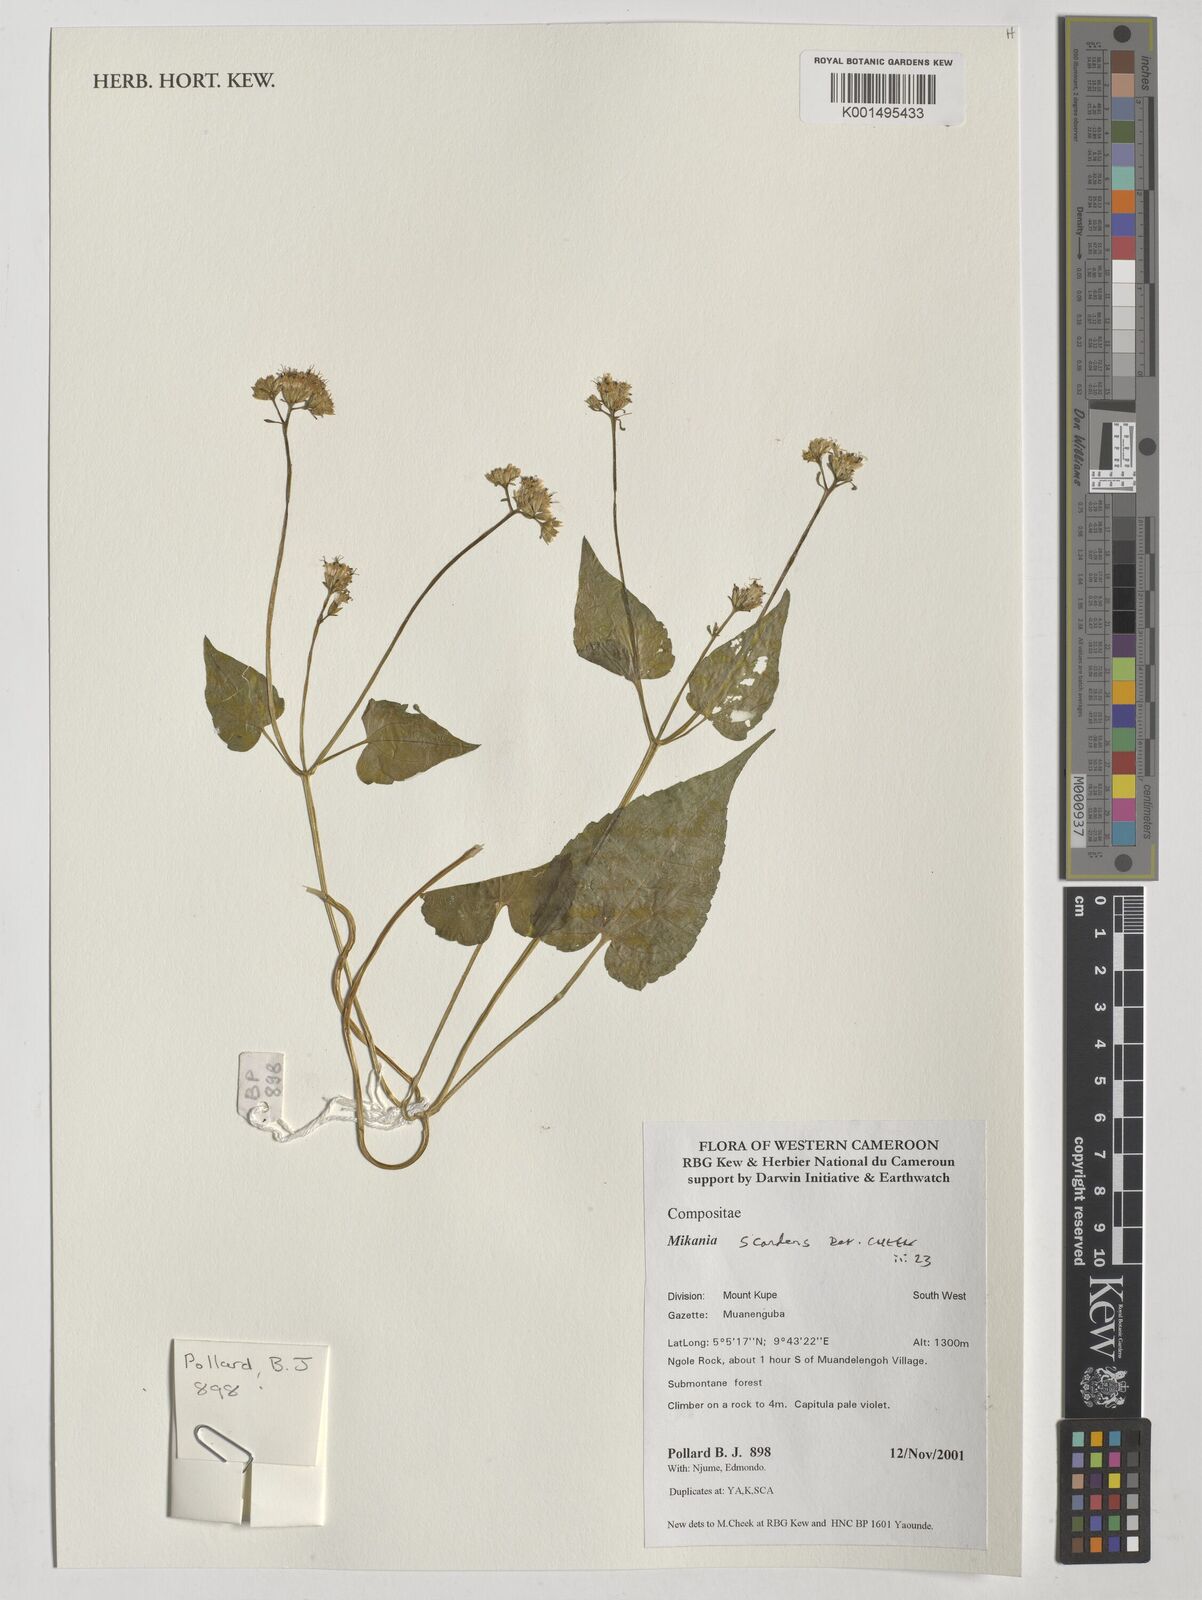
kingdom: Plantae
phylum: Tracheophyta
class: Magnoliopsida
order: Asterales
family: Asteraceae
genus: Mikania
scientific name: Mikania scandens
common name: Climbing hempvine
